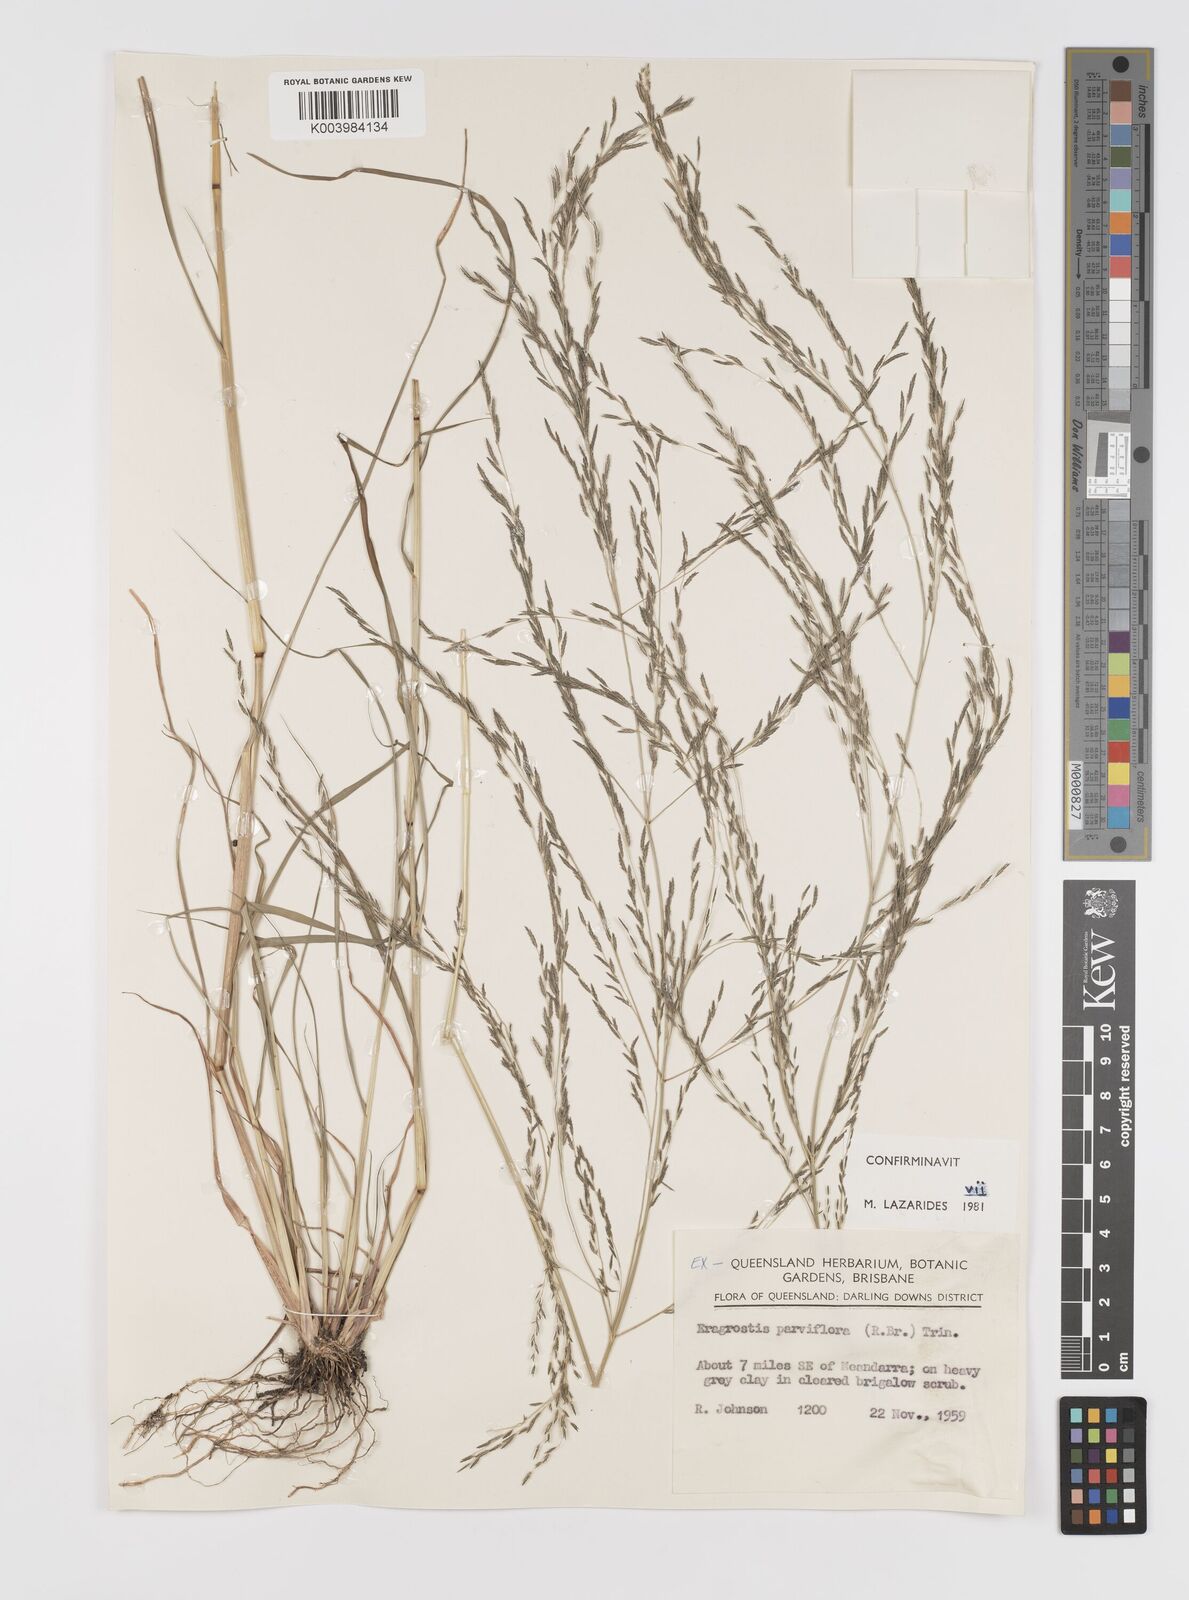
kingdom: Plantae
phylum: Tracheophyta
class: Liliopsida
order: Poales
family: Poaceae
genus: Eragrostis
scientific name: Eragrostis parviflora
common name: Weeping love-grass
